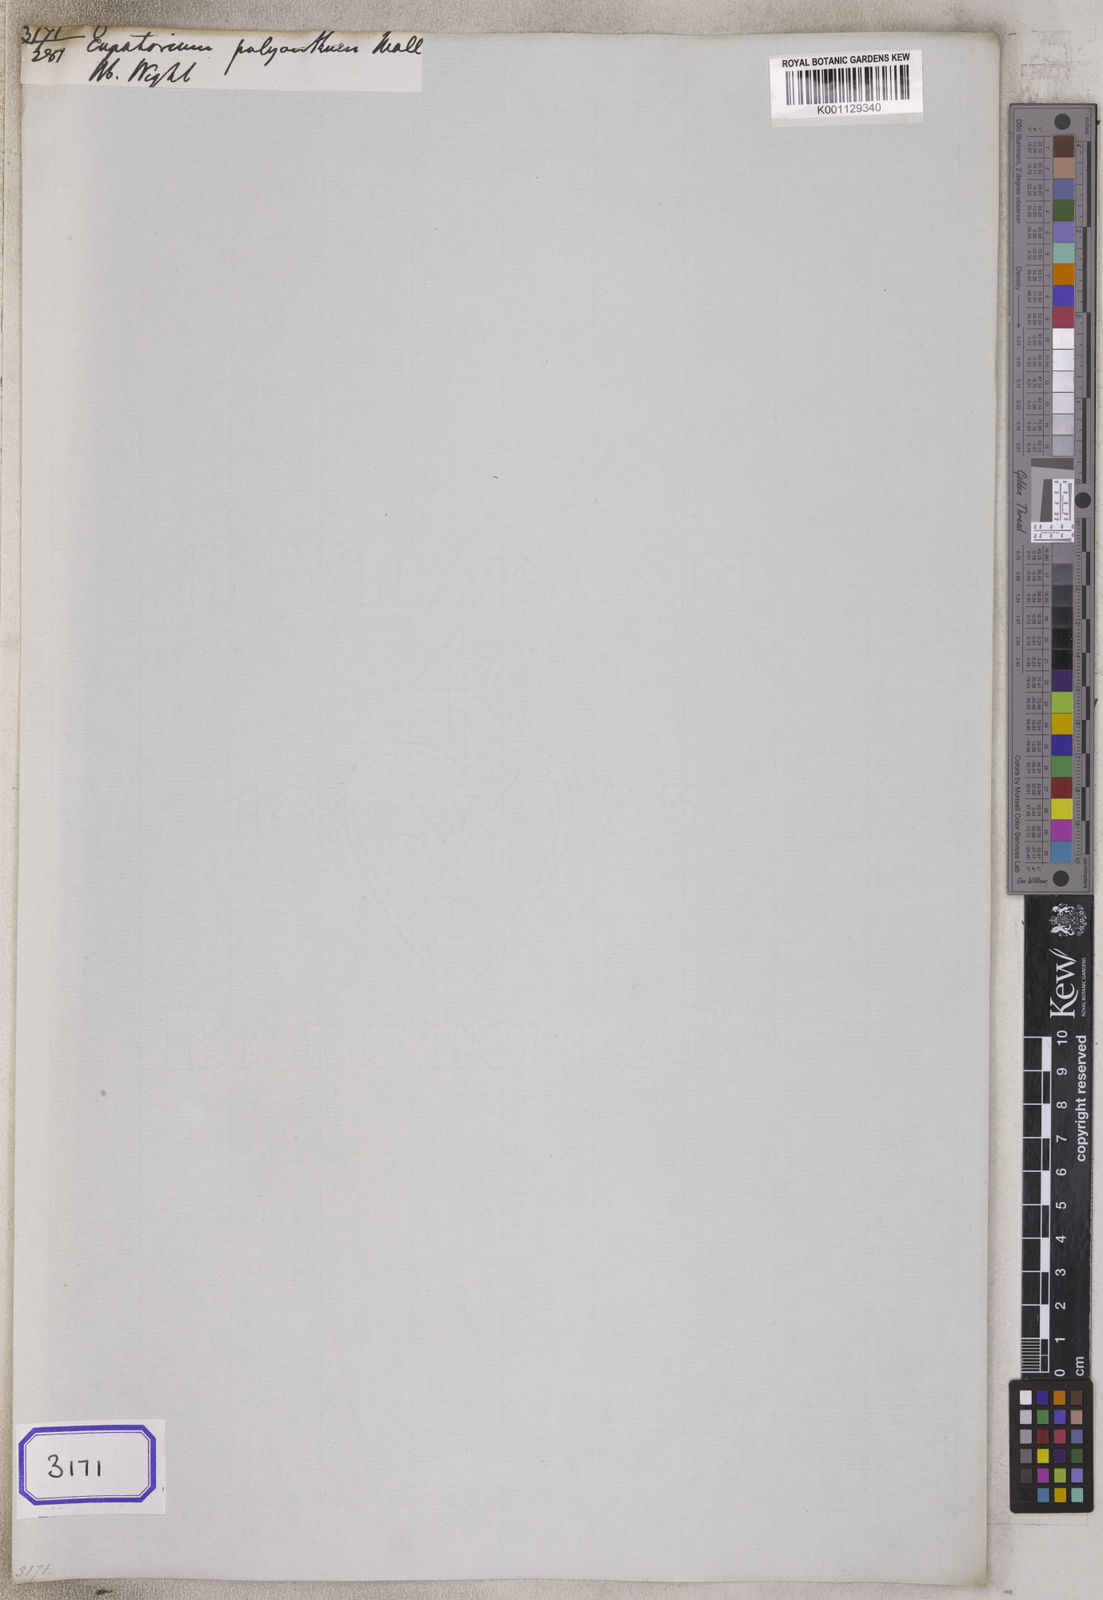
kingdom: Plantae
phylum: Tracheophyta
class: Magnoliopsida
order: Asterales
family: Asteraceae
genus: Acilepis
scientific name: Acilepis divergens
